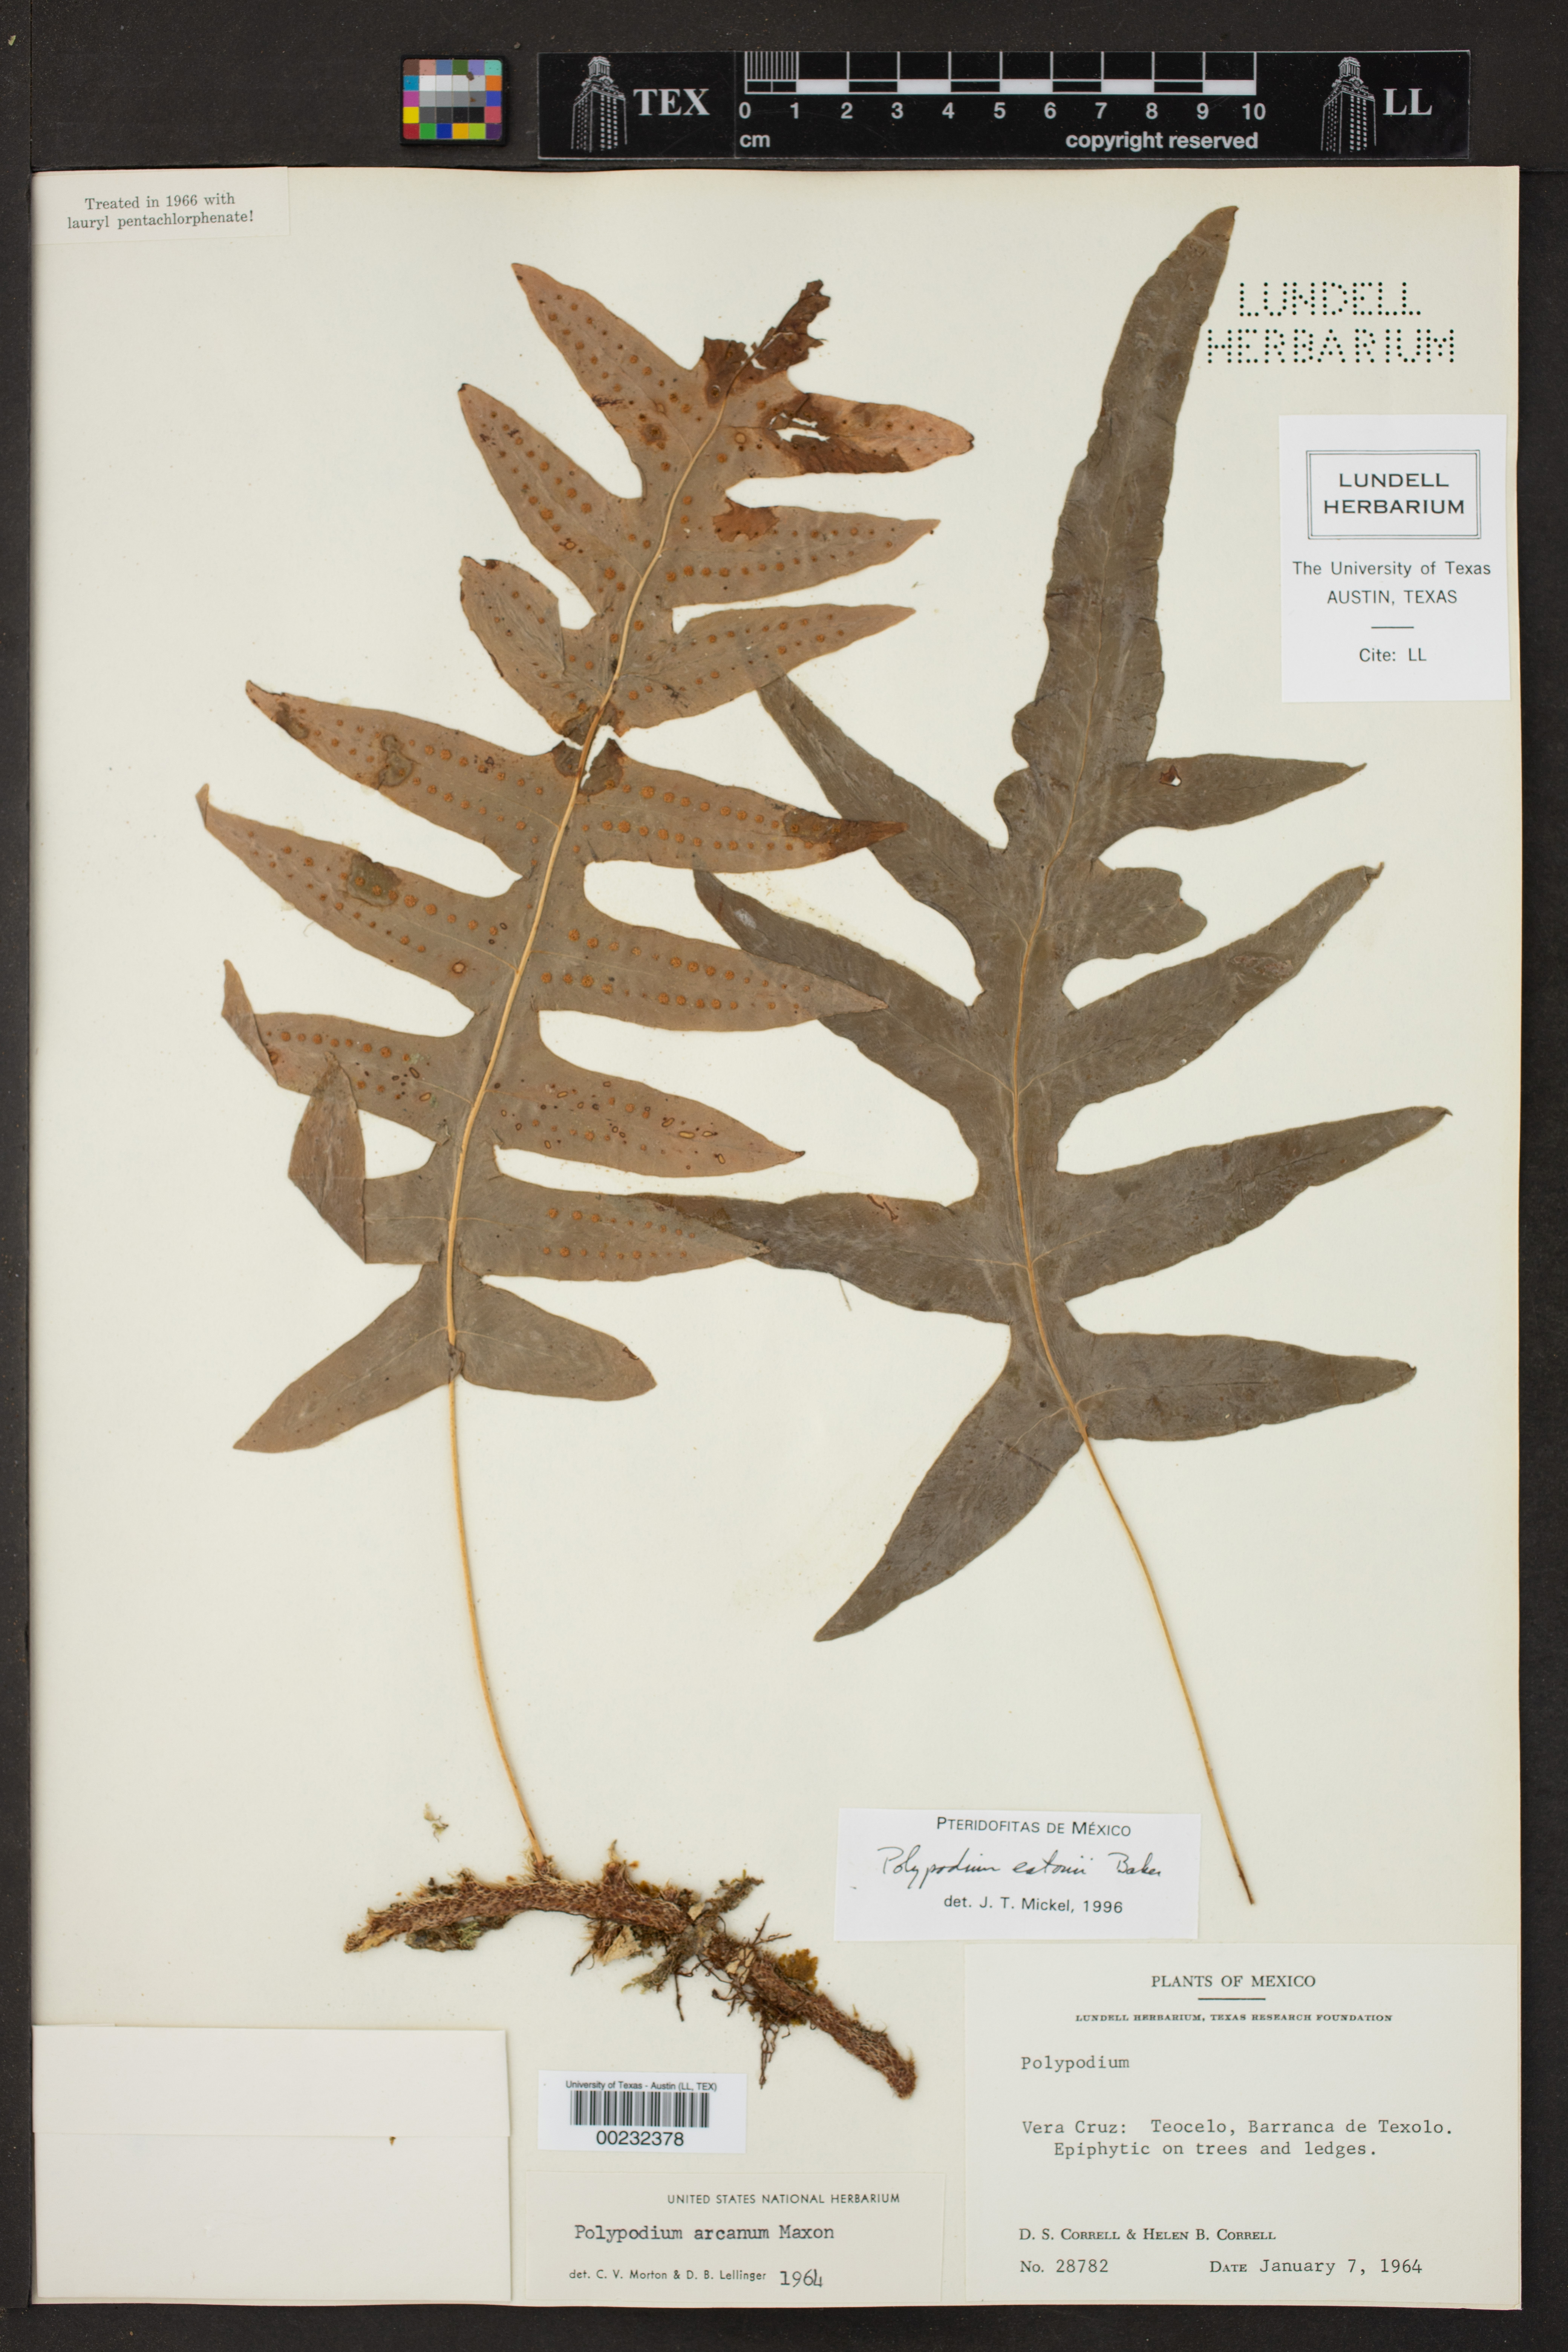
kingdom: Plantae
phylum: Tracheophyta
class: Polypodiopsida
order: Polypodiales
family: Polypodiaceae
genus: Polypodium
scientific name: Polypodium eatonii
